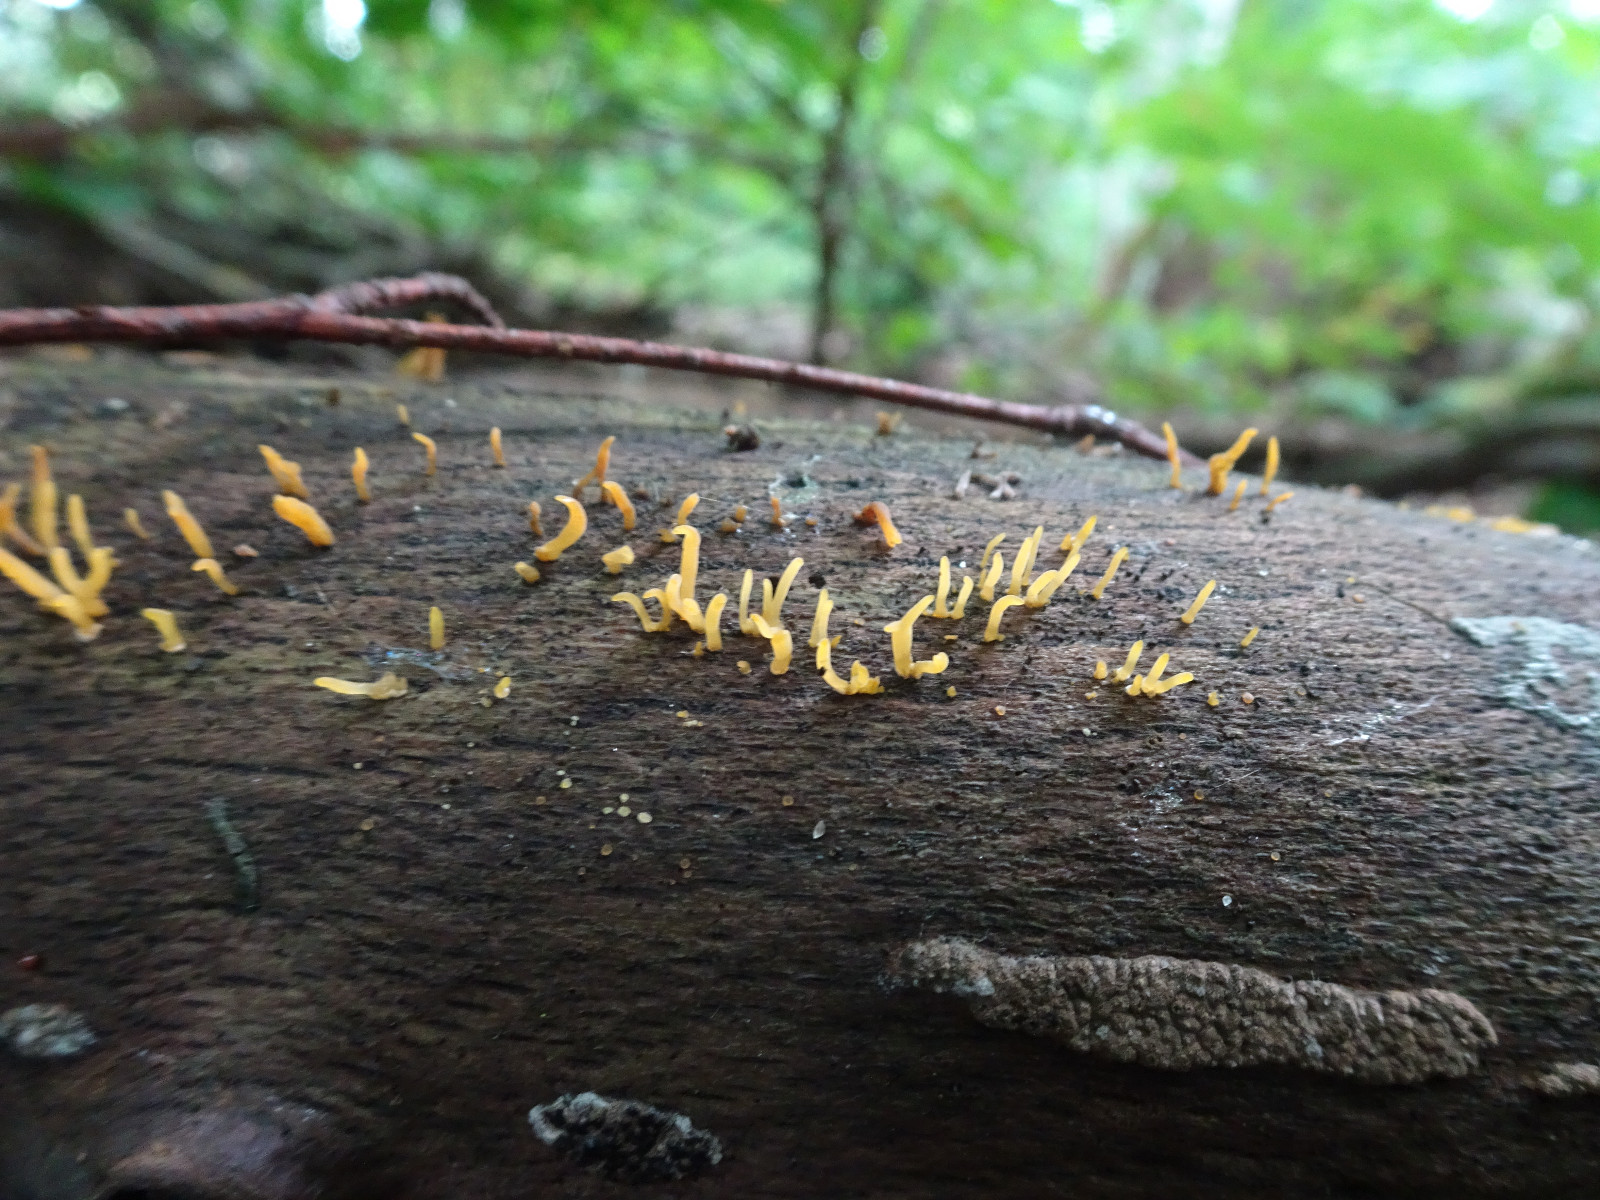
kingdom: Fungi
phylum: Basidiomycota
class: Dacrymycetes
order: Dacrymycetales
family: Dacrymycetaceae
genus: Calocera
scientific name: Calocera cornea
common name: liden guldgaffel
